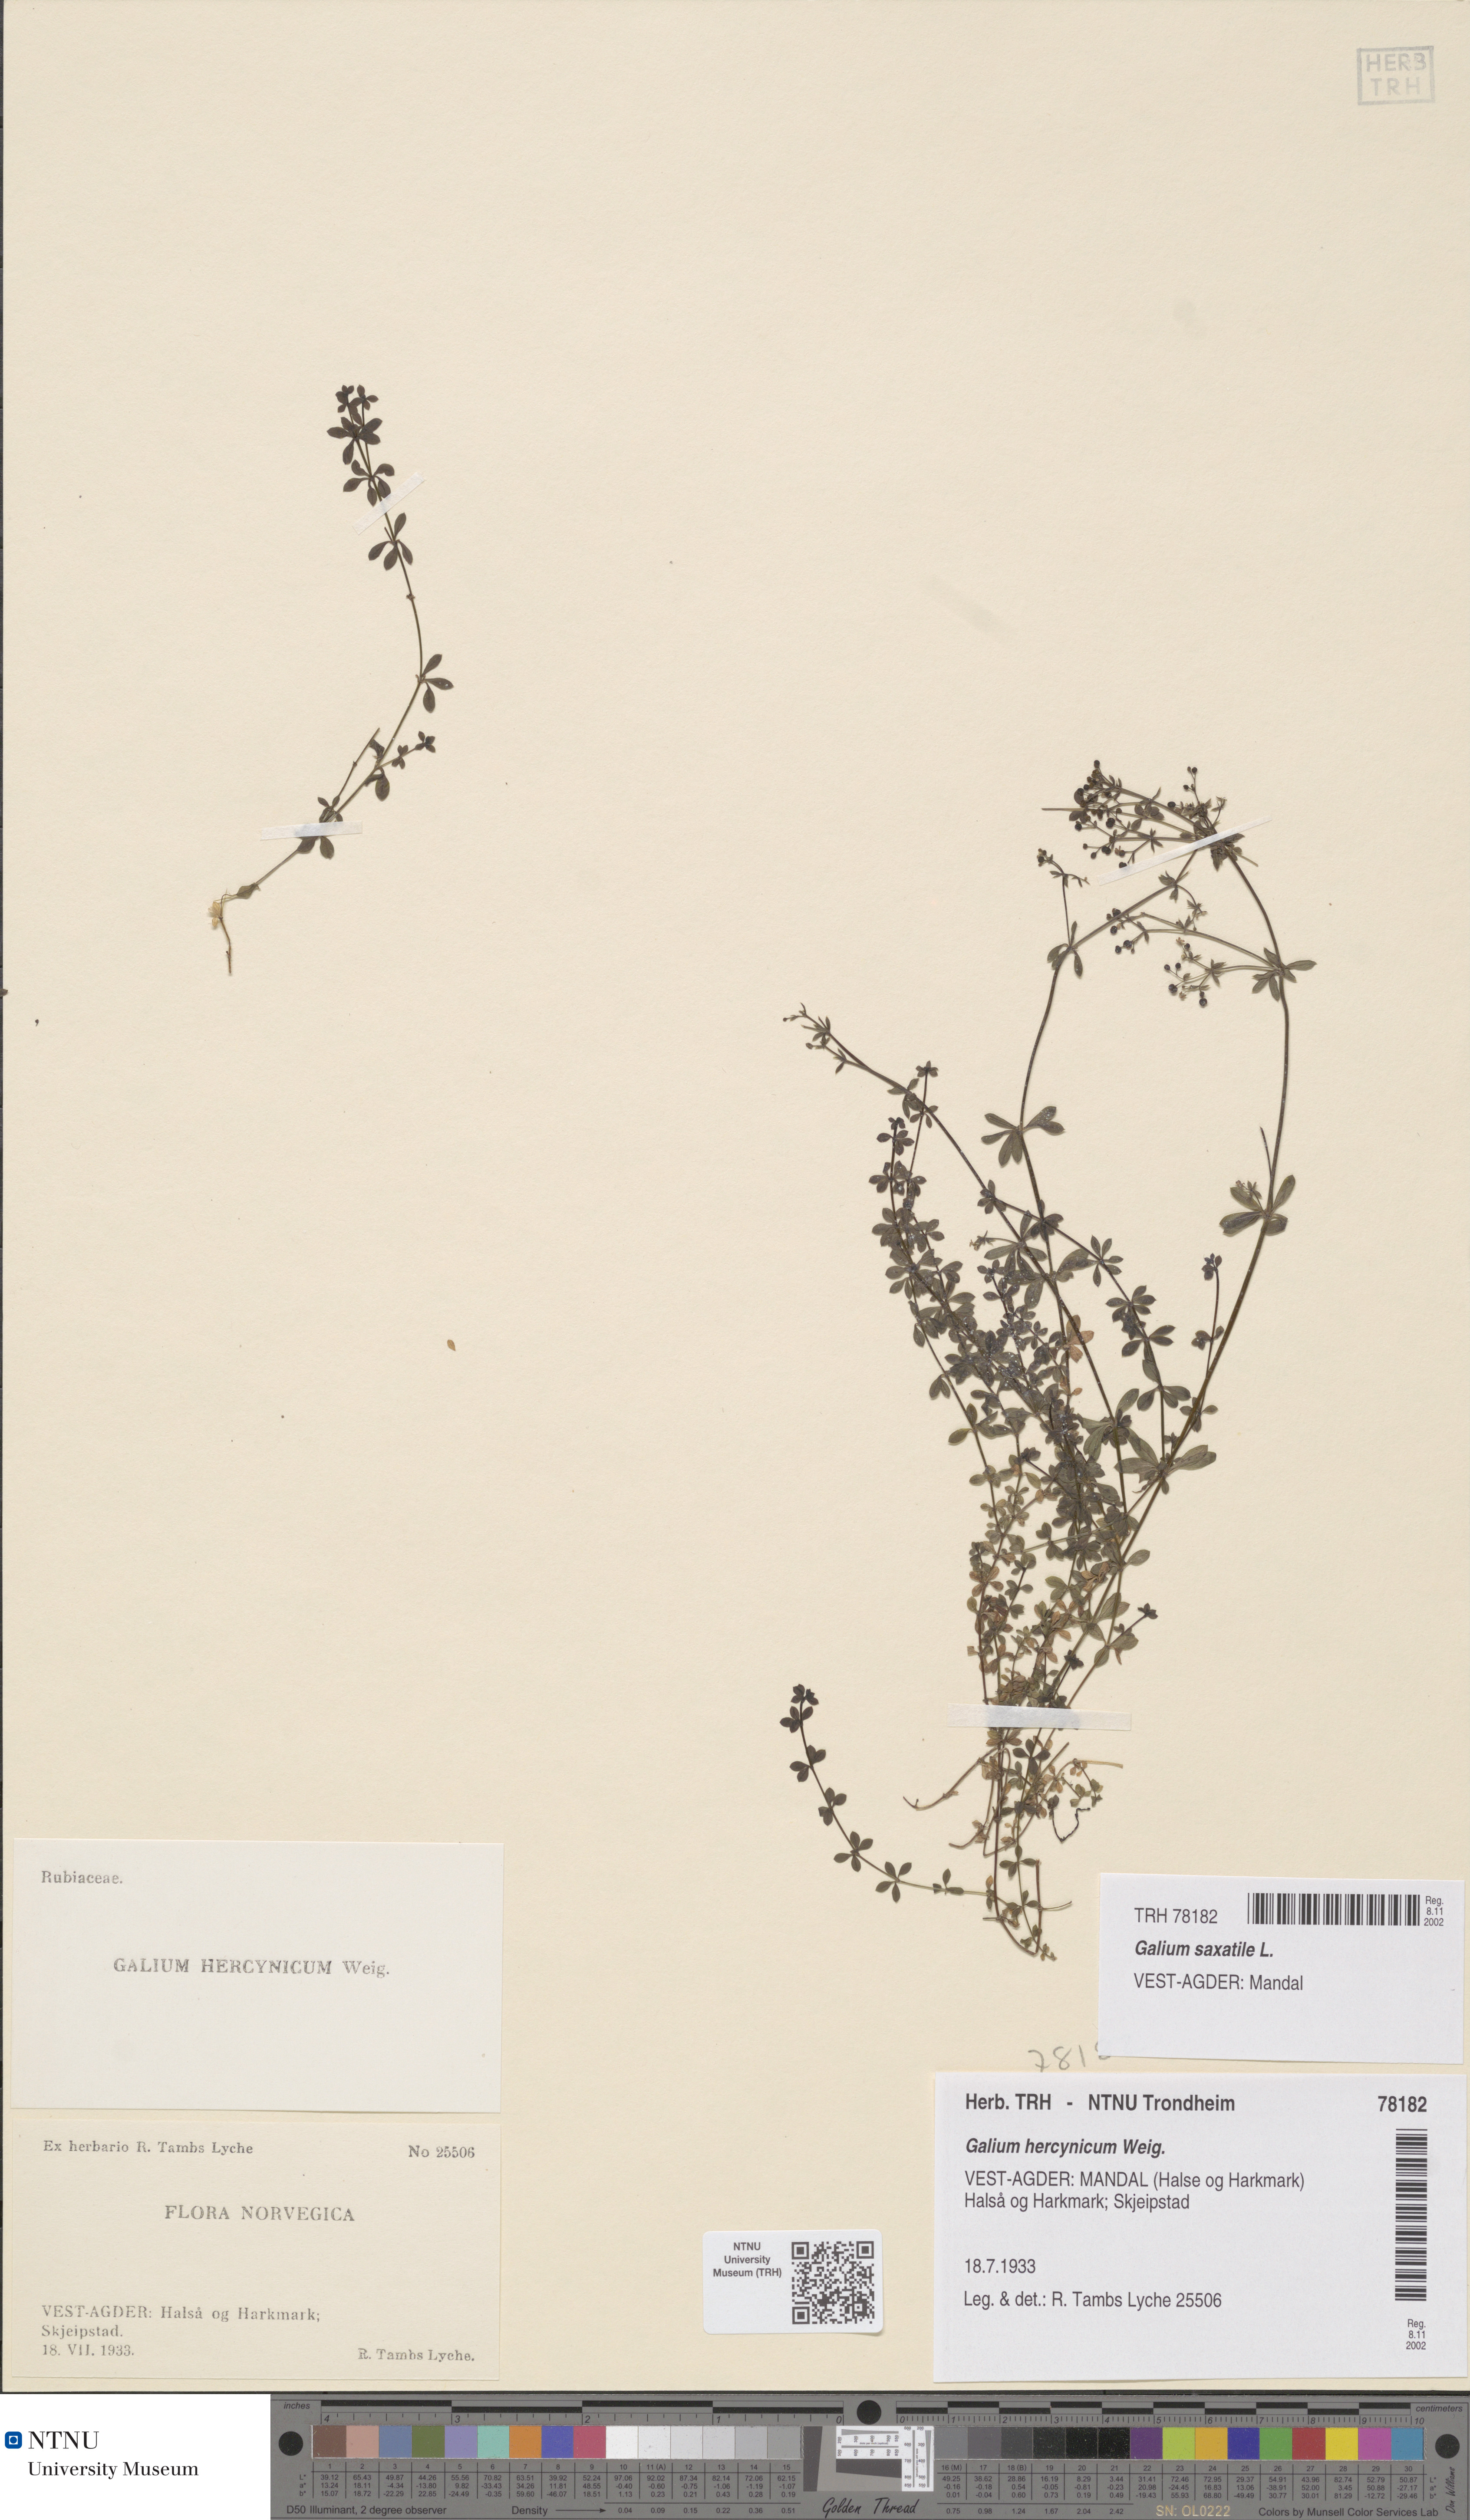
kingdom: Plantae
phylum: Tracheophyta
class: Magnoliopsida
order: Gentianales
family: Rubiaceae
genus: Galium
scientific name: Galium saxatile
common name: Heath bedstraw
